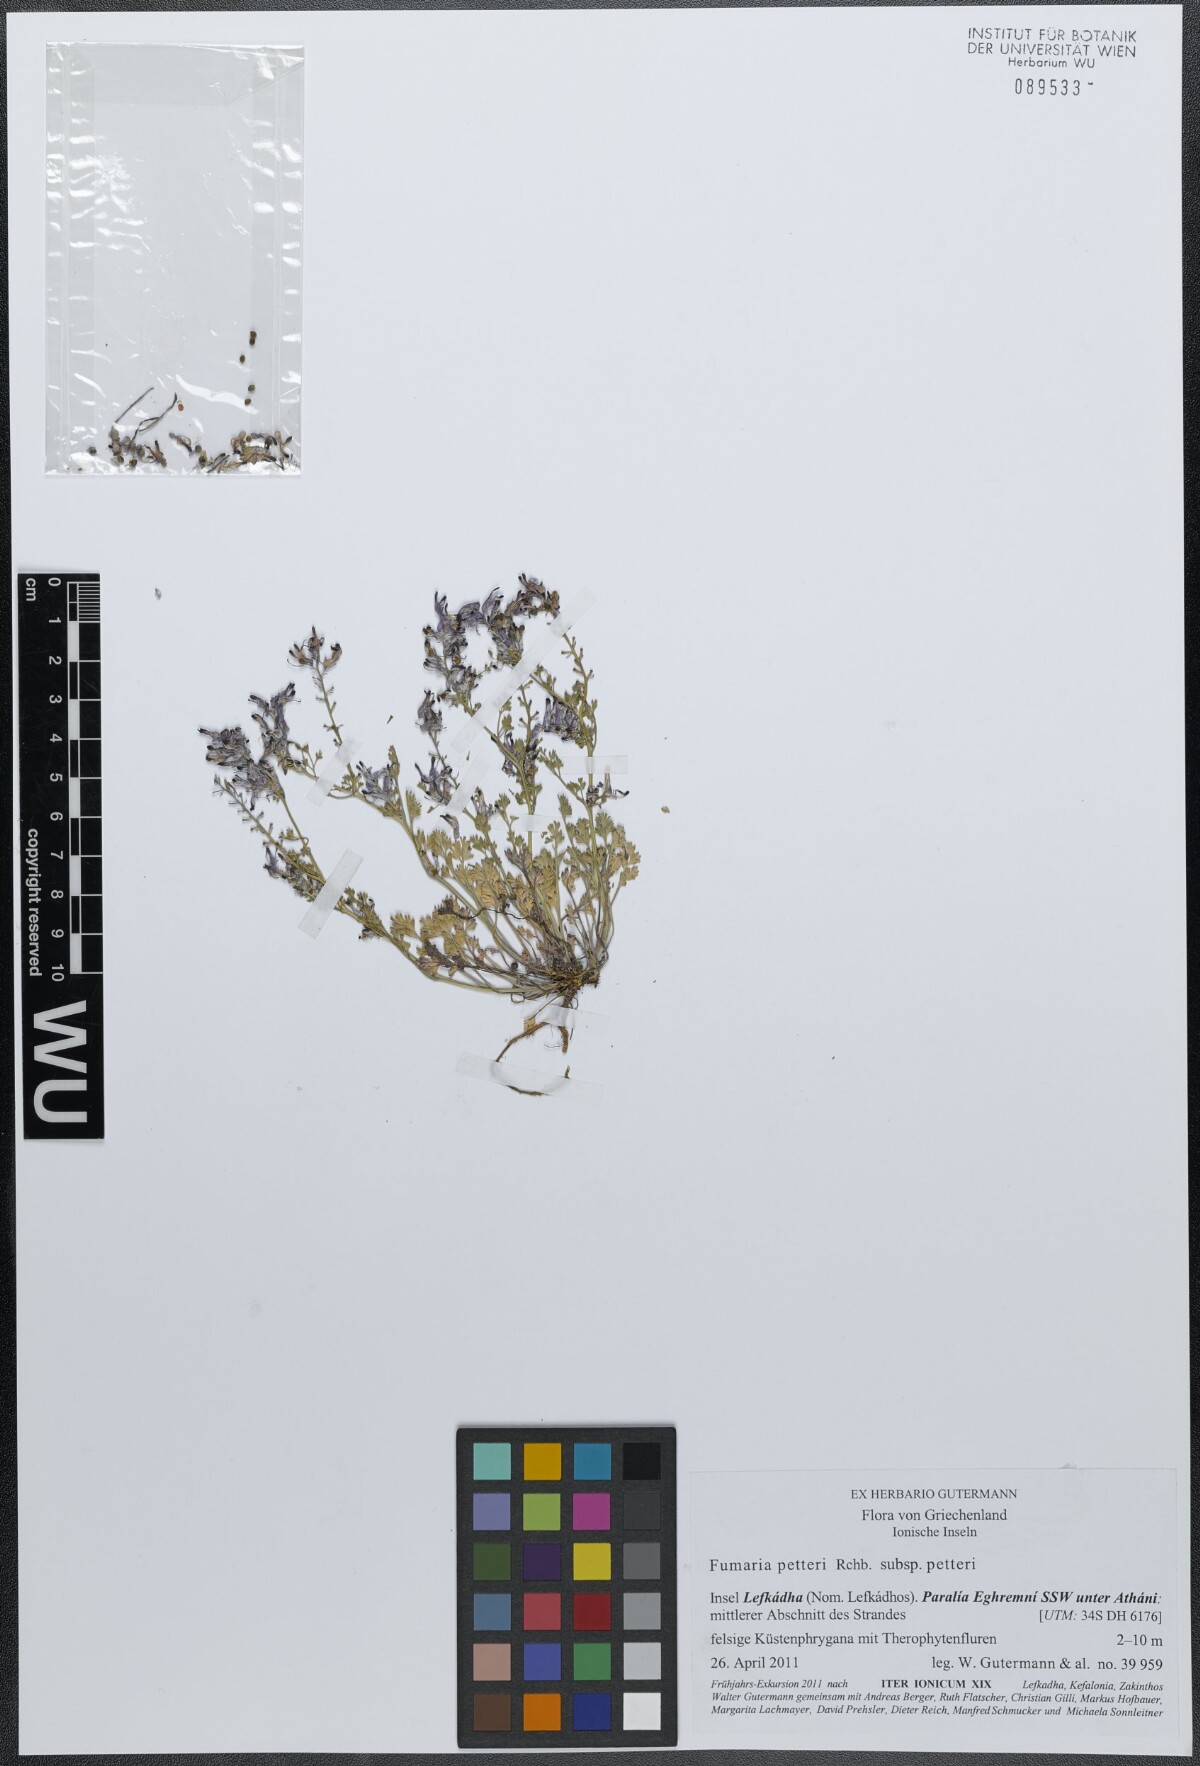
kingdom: Plantae
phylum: Tracheophyta
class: Magnoliopsida
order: Ranunculales
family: Papaveraceae
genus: Fumaria
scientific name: Fumaria petteri
